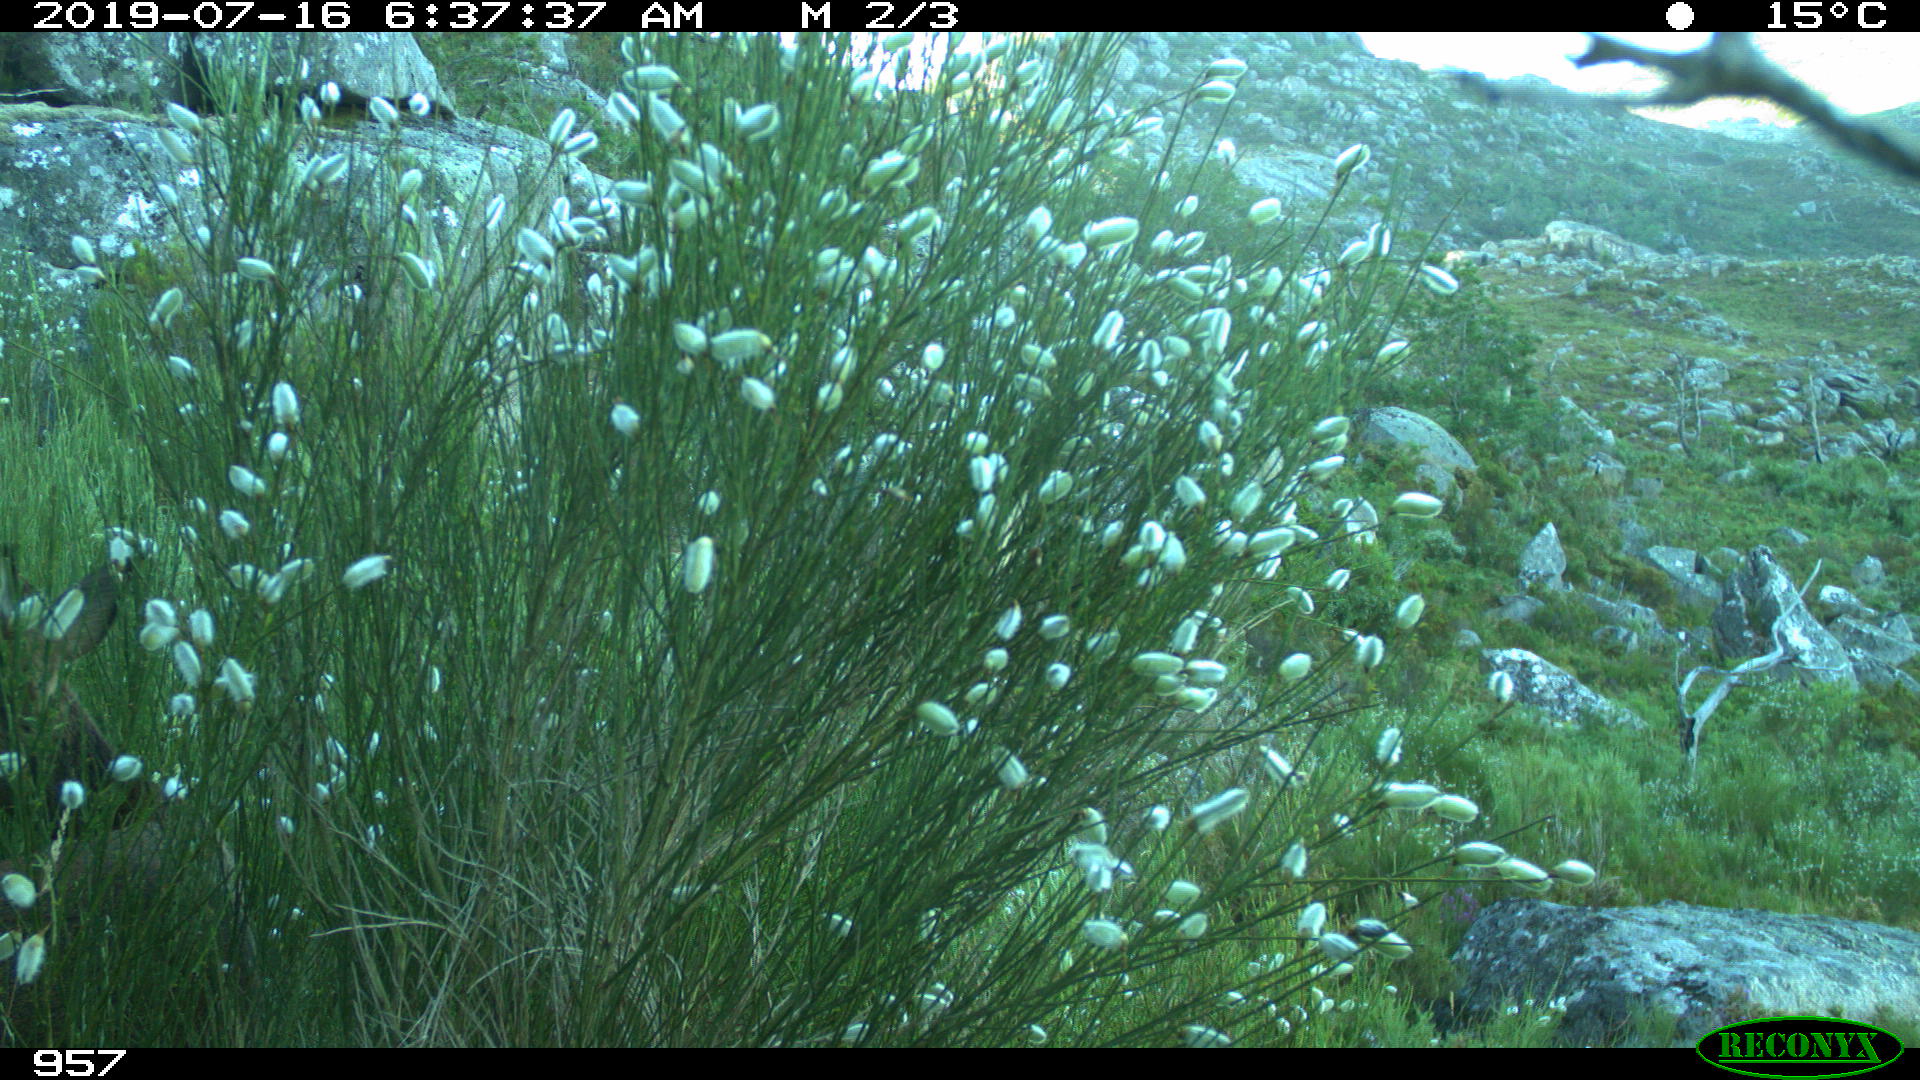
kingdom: Animalia
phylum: Chordata
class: Mammalia
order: Artiodactyla
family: Cervidae
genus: Capreolus
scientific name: Capreolus capreolus
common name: Western roe deer
